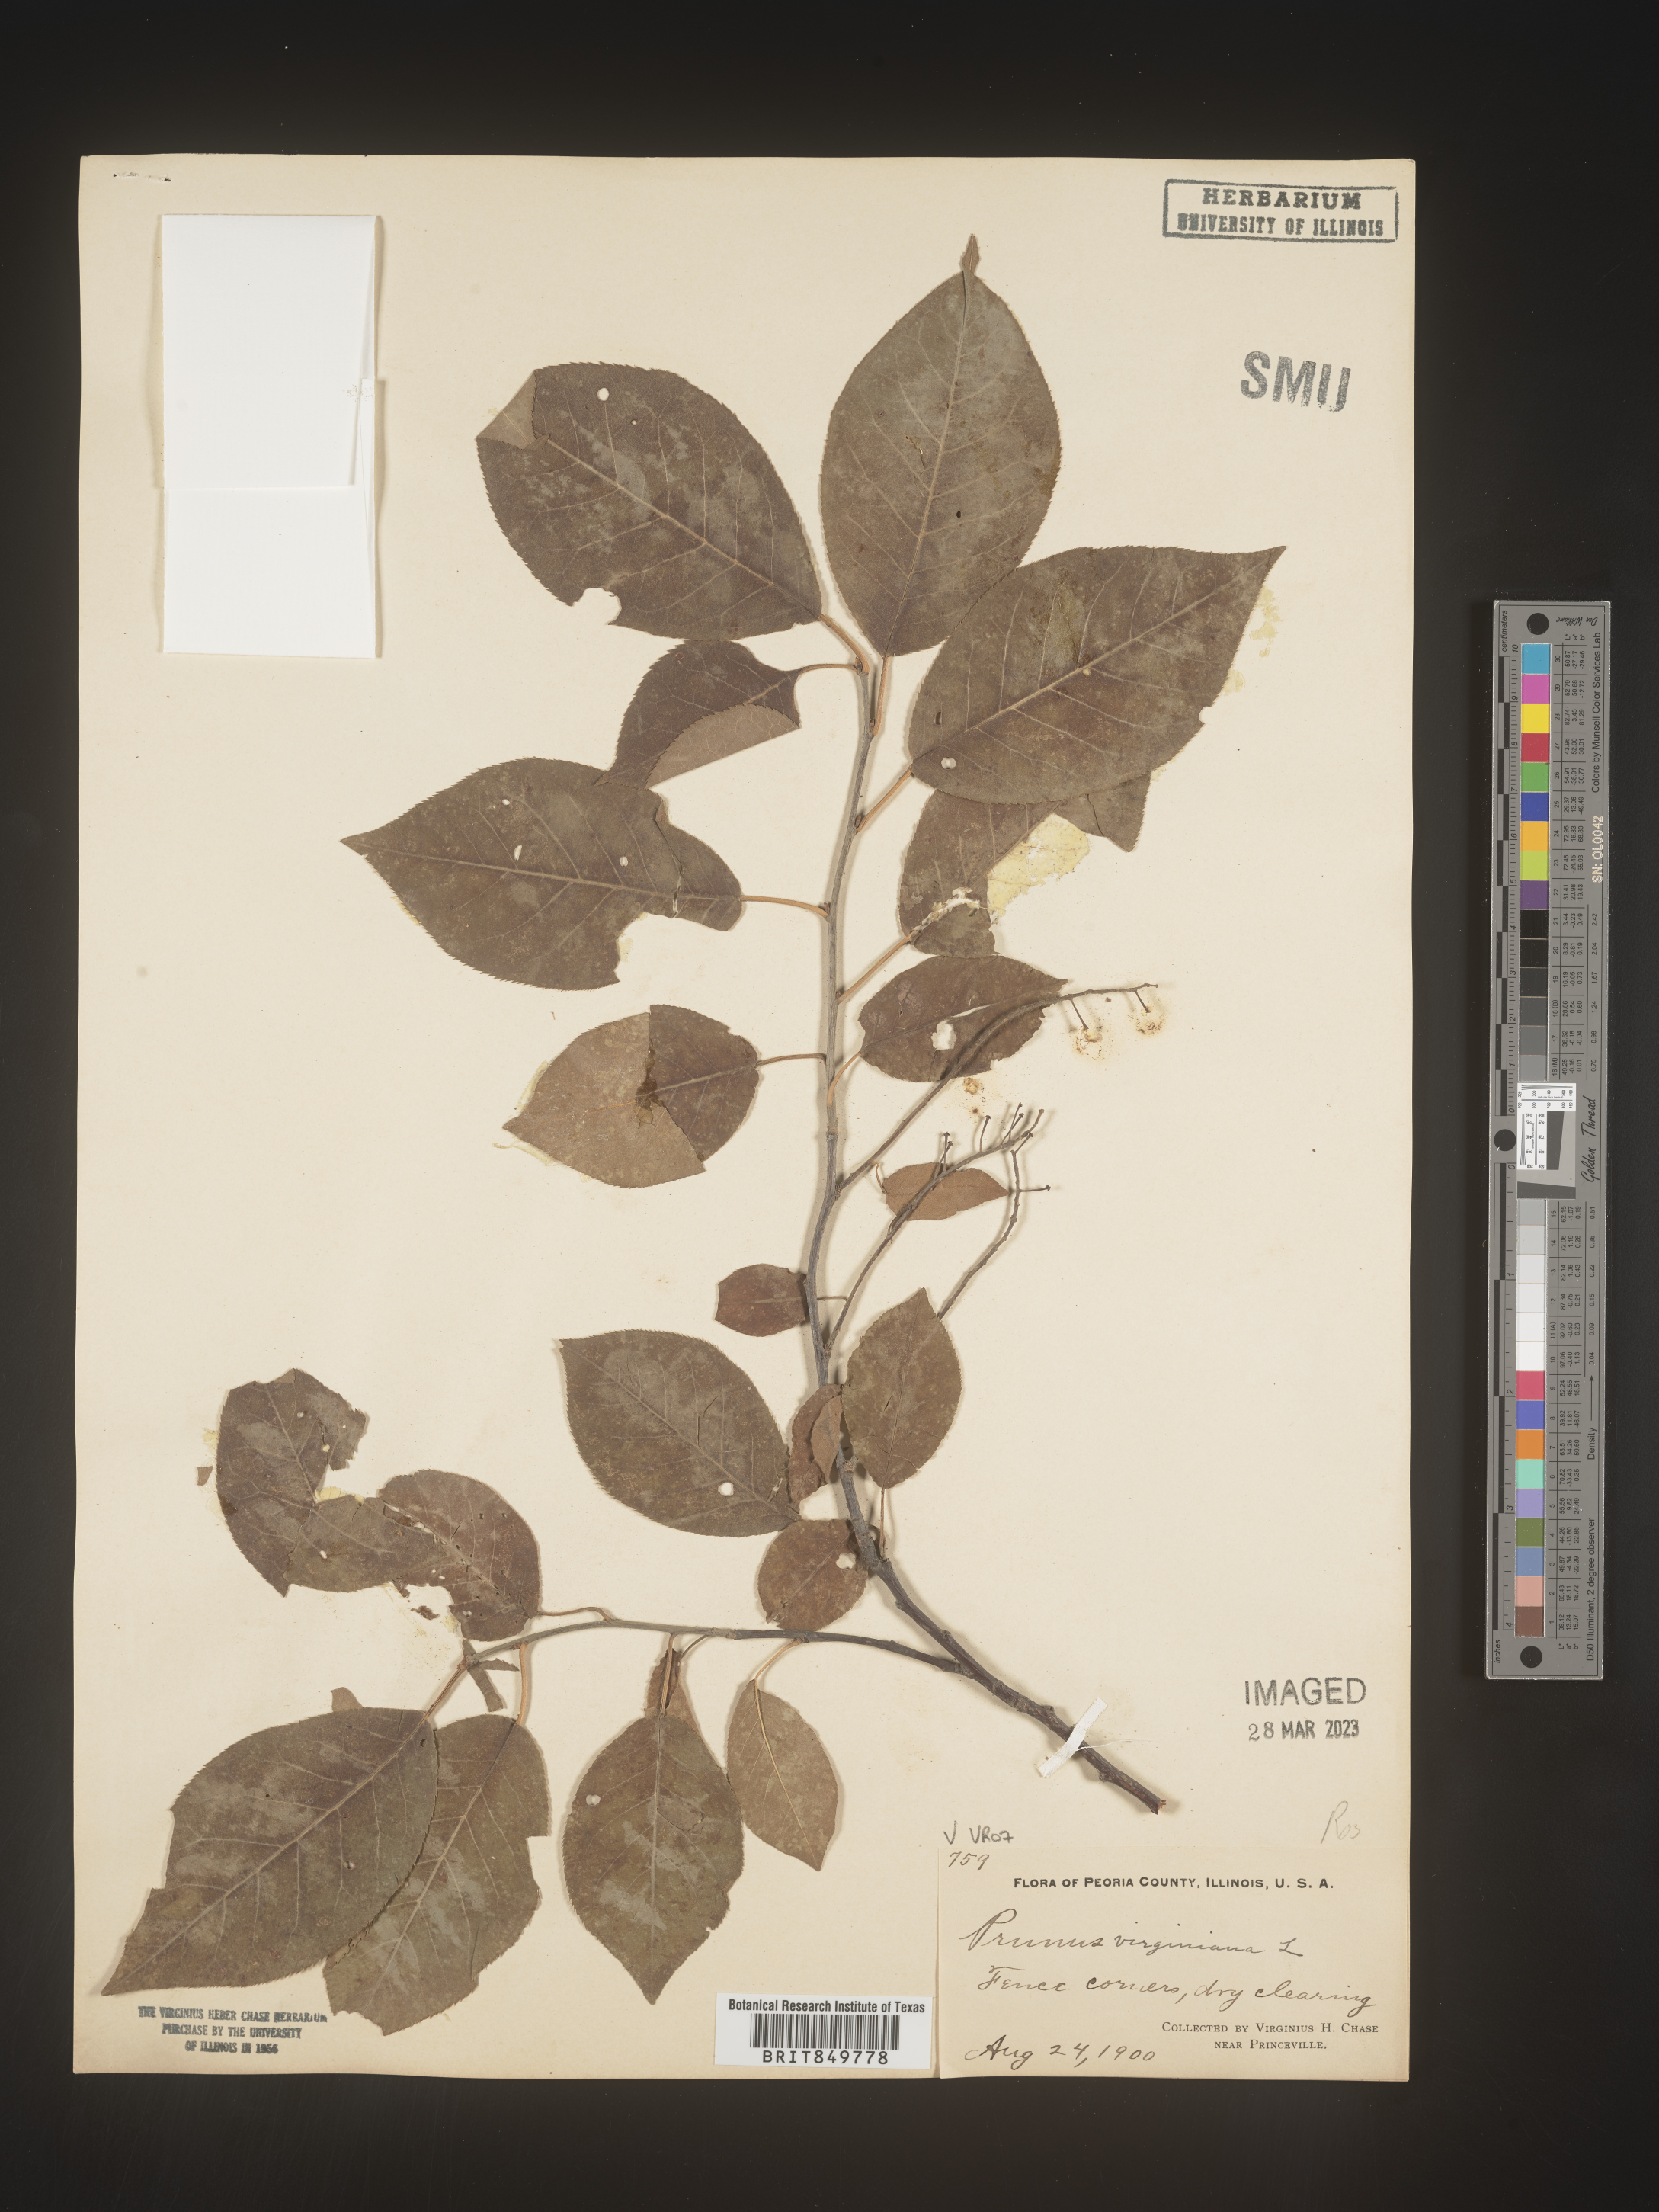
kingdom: Plantae
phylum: Tracheophyta
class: Magnoliopsida
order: Rosales
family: Rosaceae
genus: Prunus
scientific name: Prunus virginiana
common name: Chokecherry
